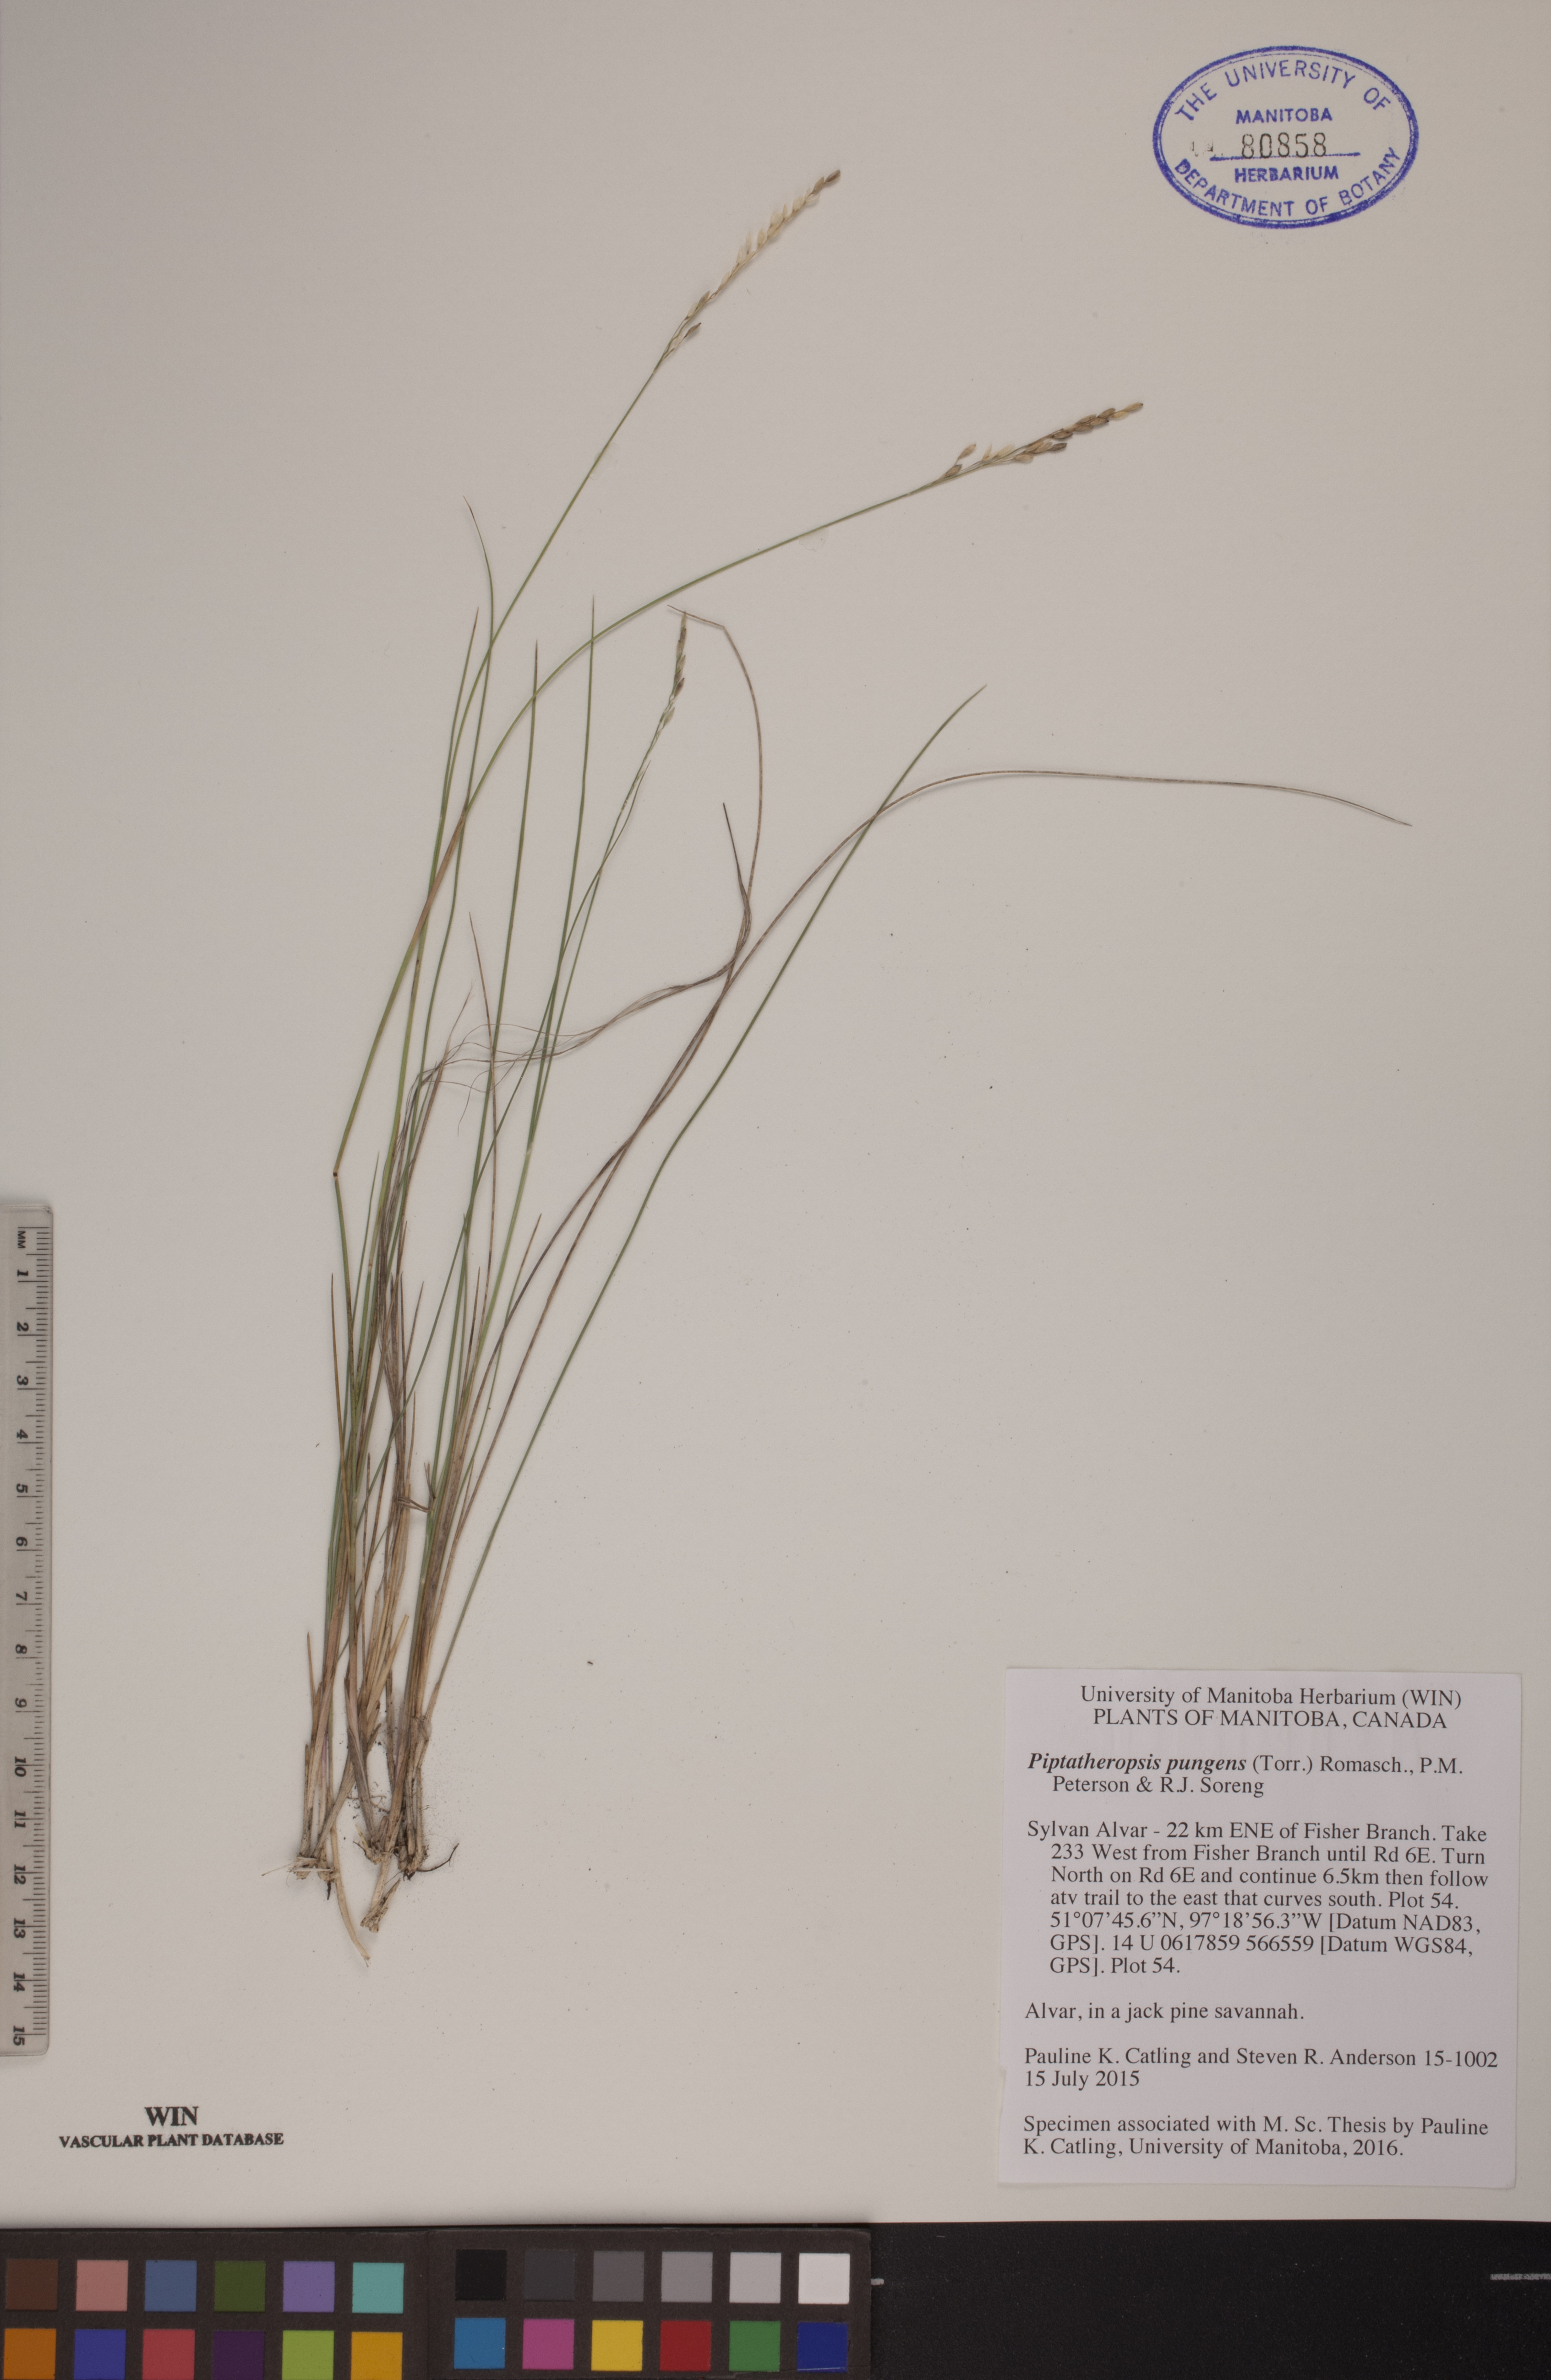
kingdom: Plantae
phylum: Tracheophyta
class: Liliopsida
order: Poales
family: Poaceae
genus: Piptatheropsis
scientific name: Piptatheropsis pungens
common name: Northern ricegrass
